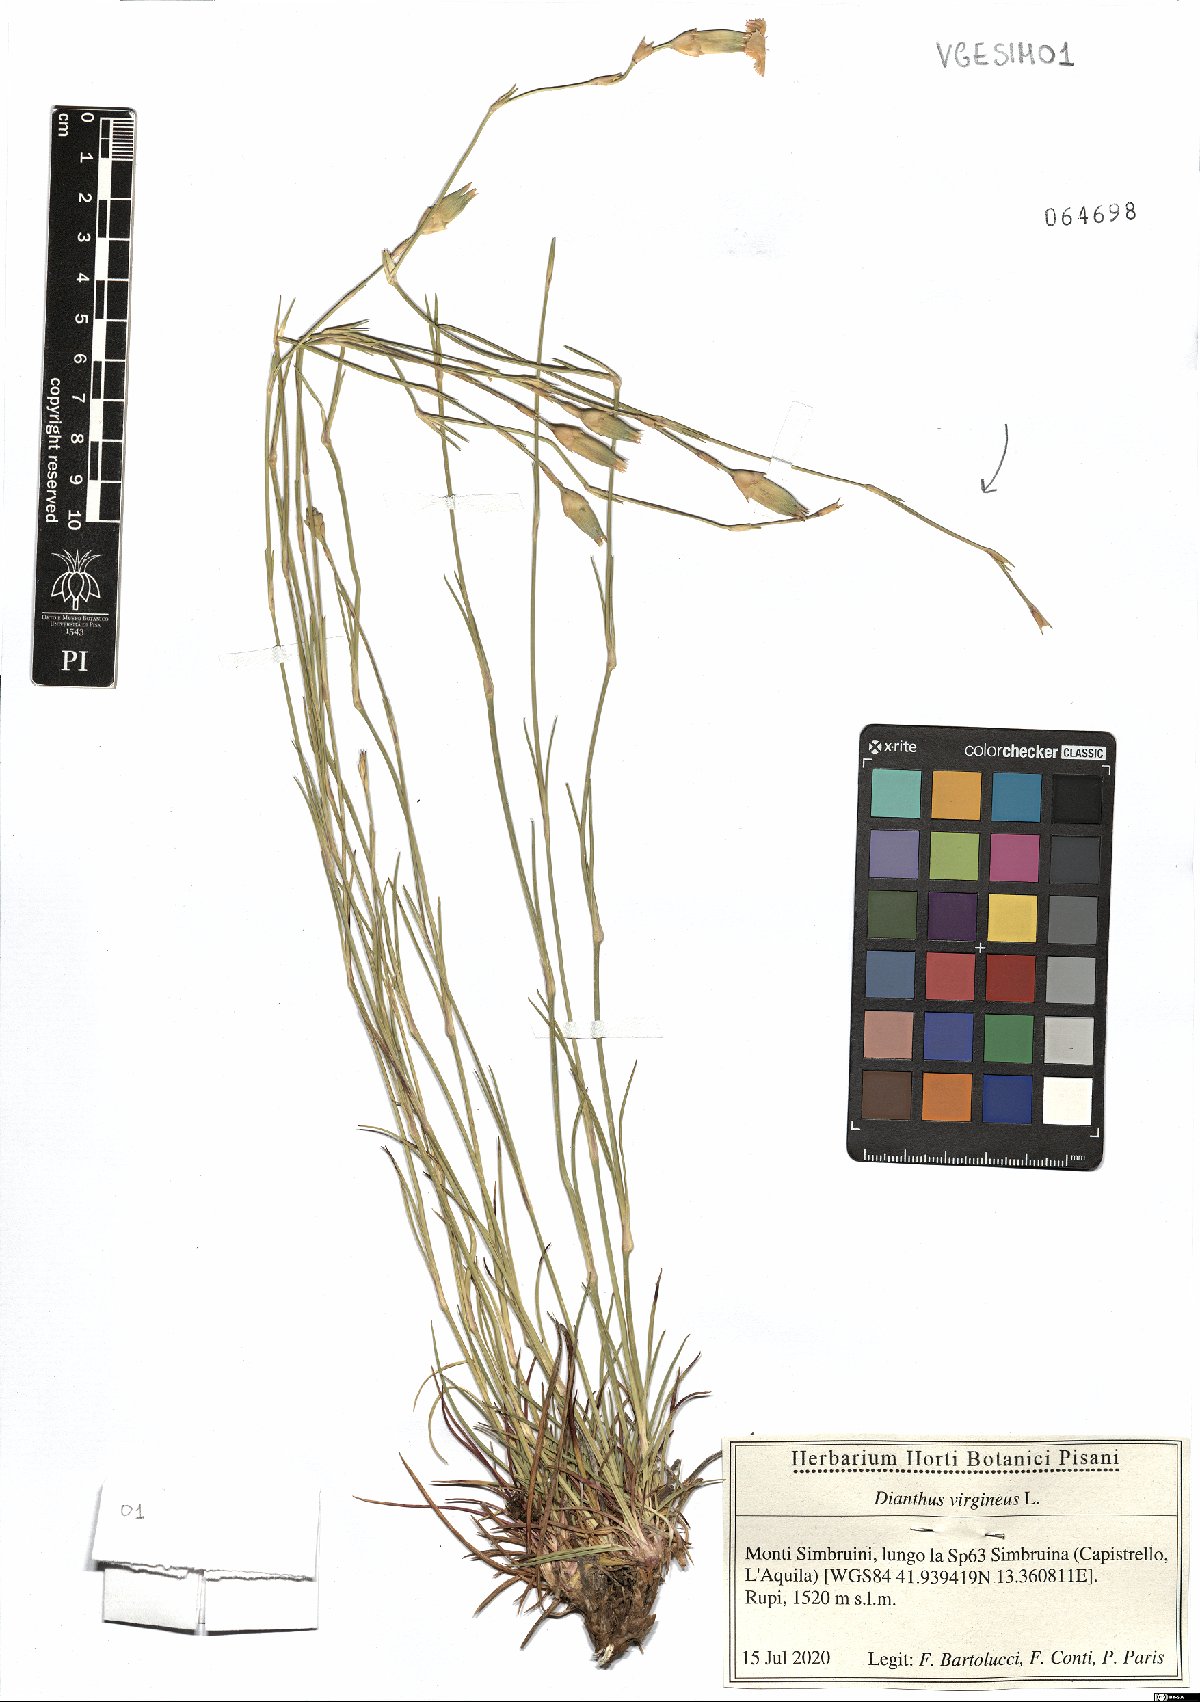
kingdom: Plantae
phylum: Tracheophyta
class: Magnoliopsida
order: Caryophyllales
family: Caryophyllaceae
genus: Dianthus
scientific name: Dianthus virgineus
